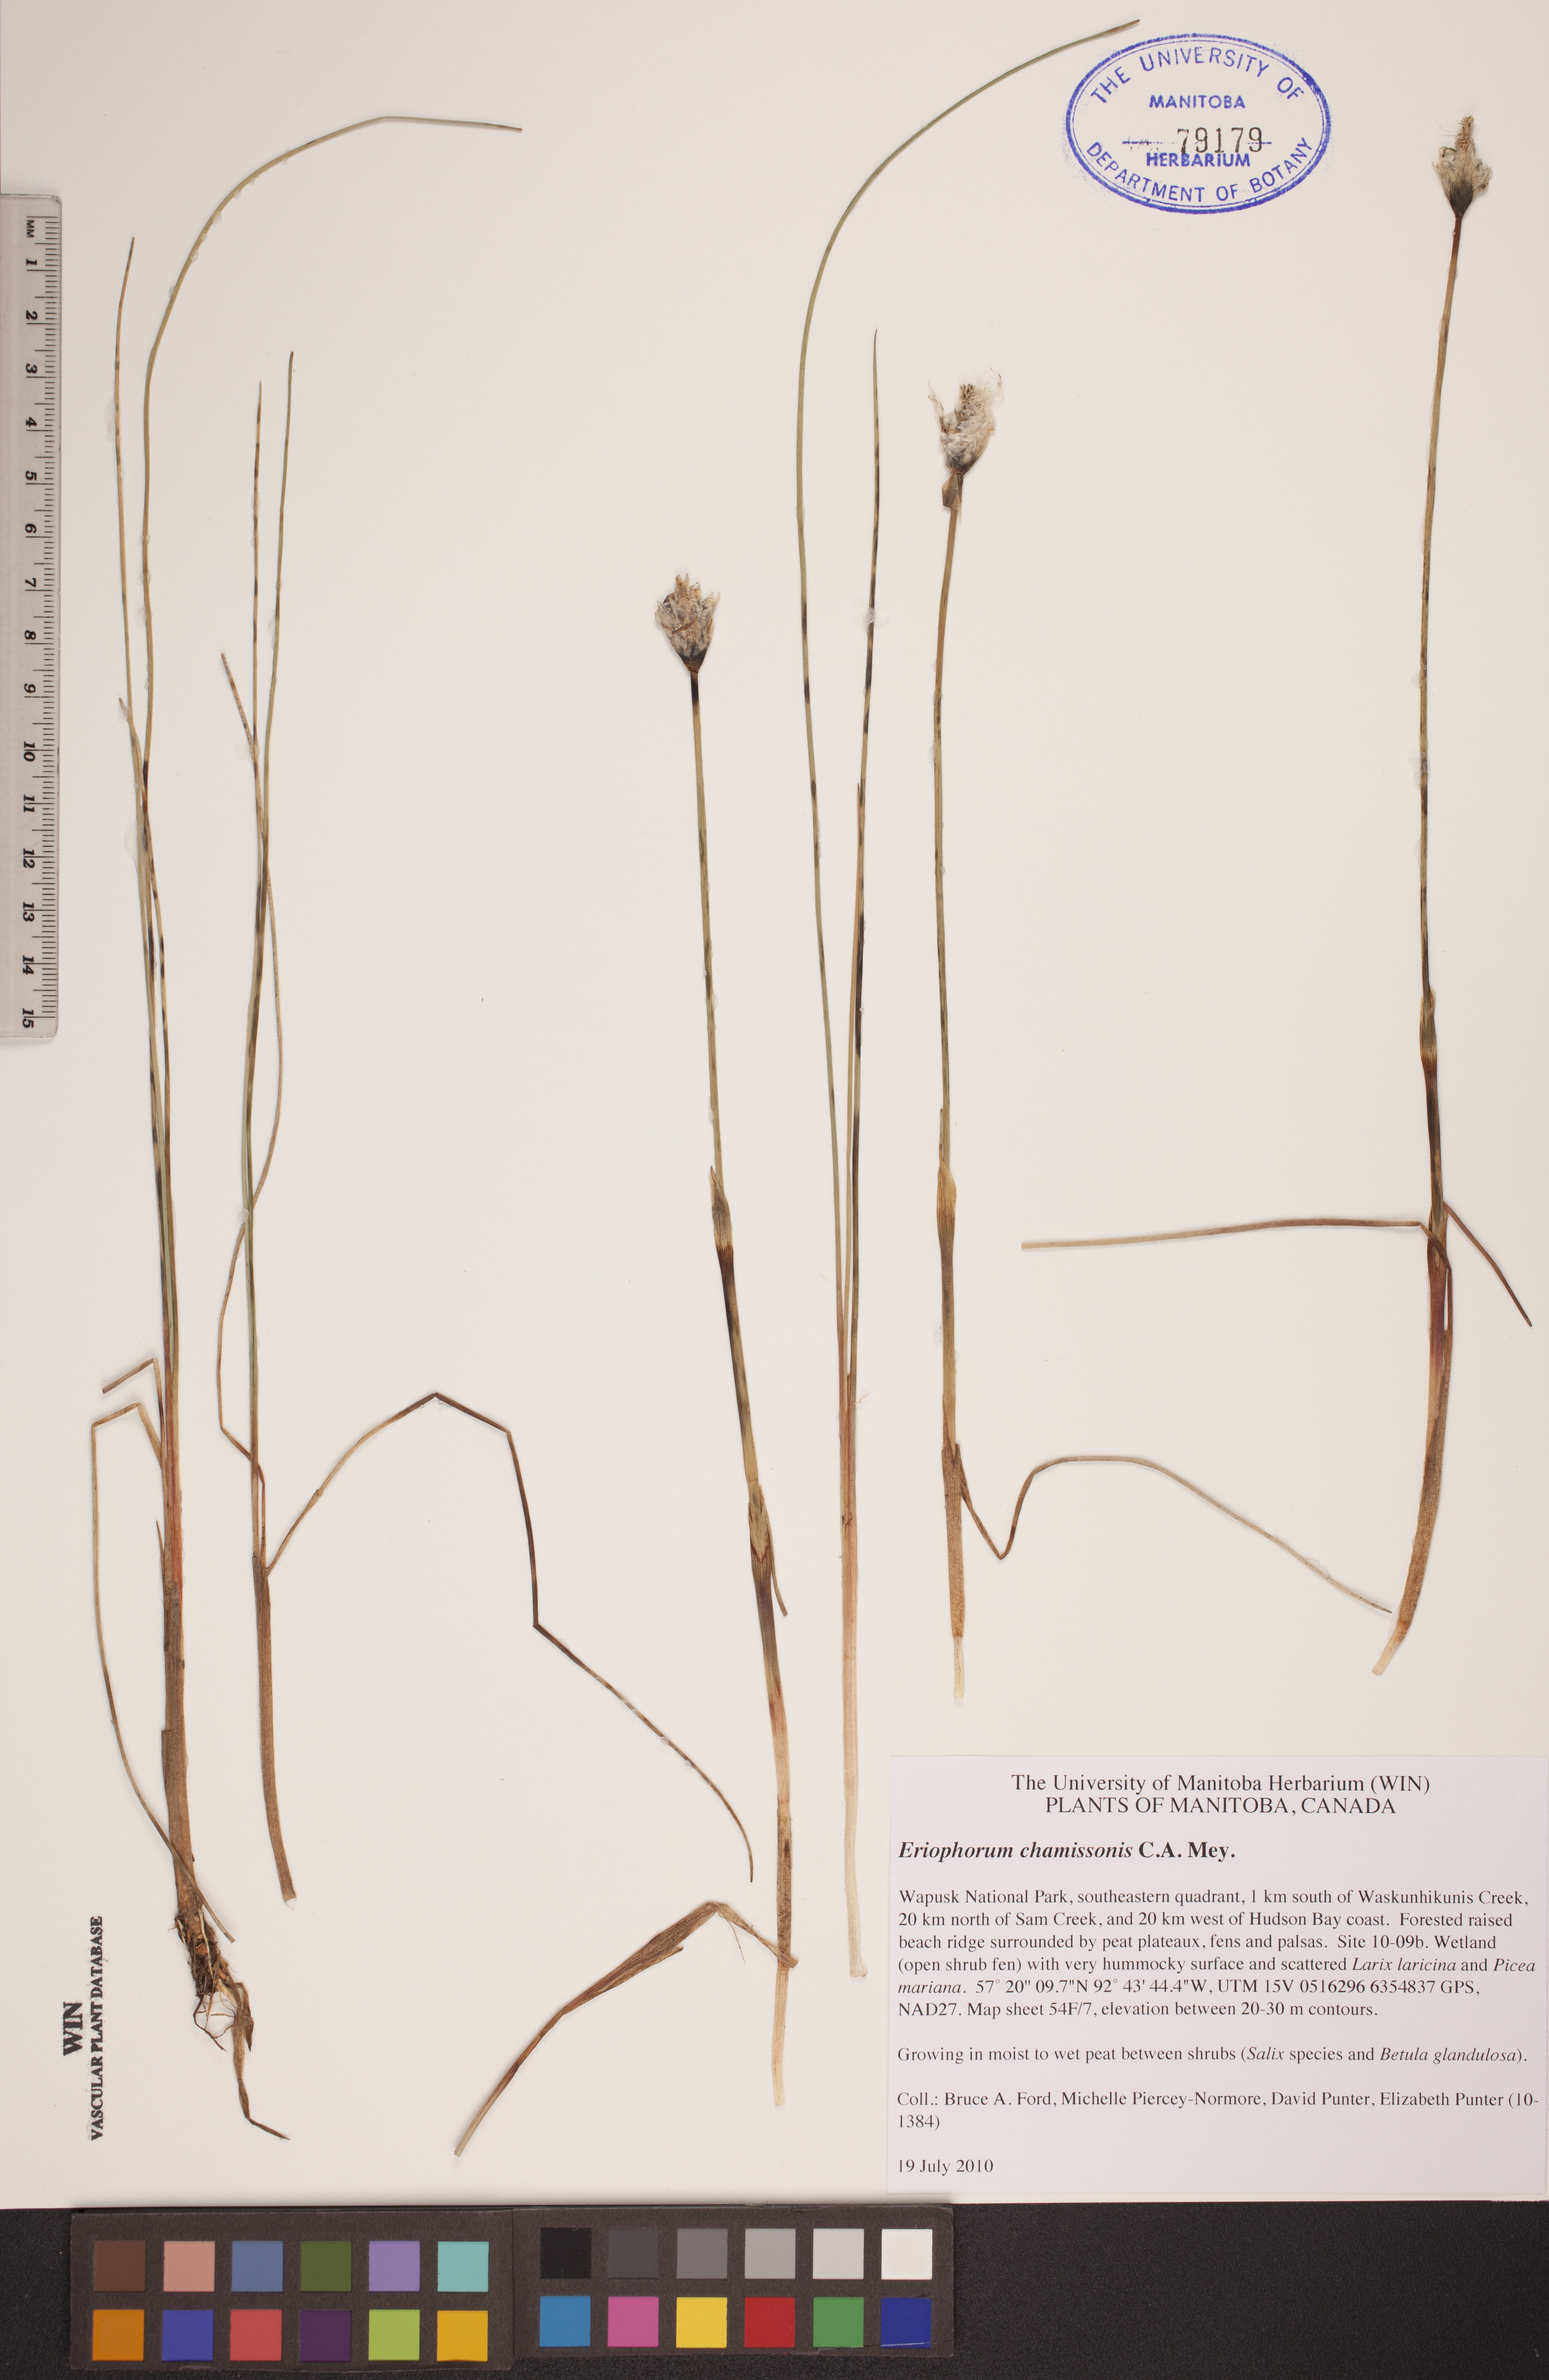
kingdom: Plantae
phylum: Tracheophyta
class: Liliopsida
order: Poales
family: Cyperaceae
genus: Eriophorum
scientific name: Eriophorum chamissonis
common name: Chamisso's cottongrass
